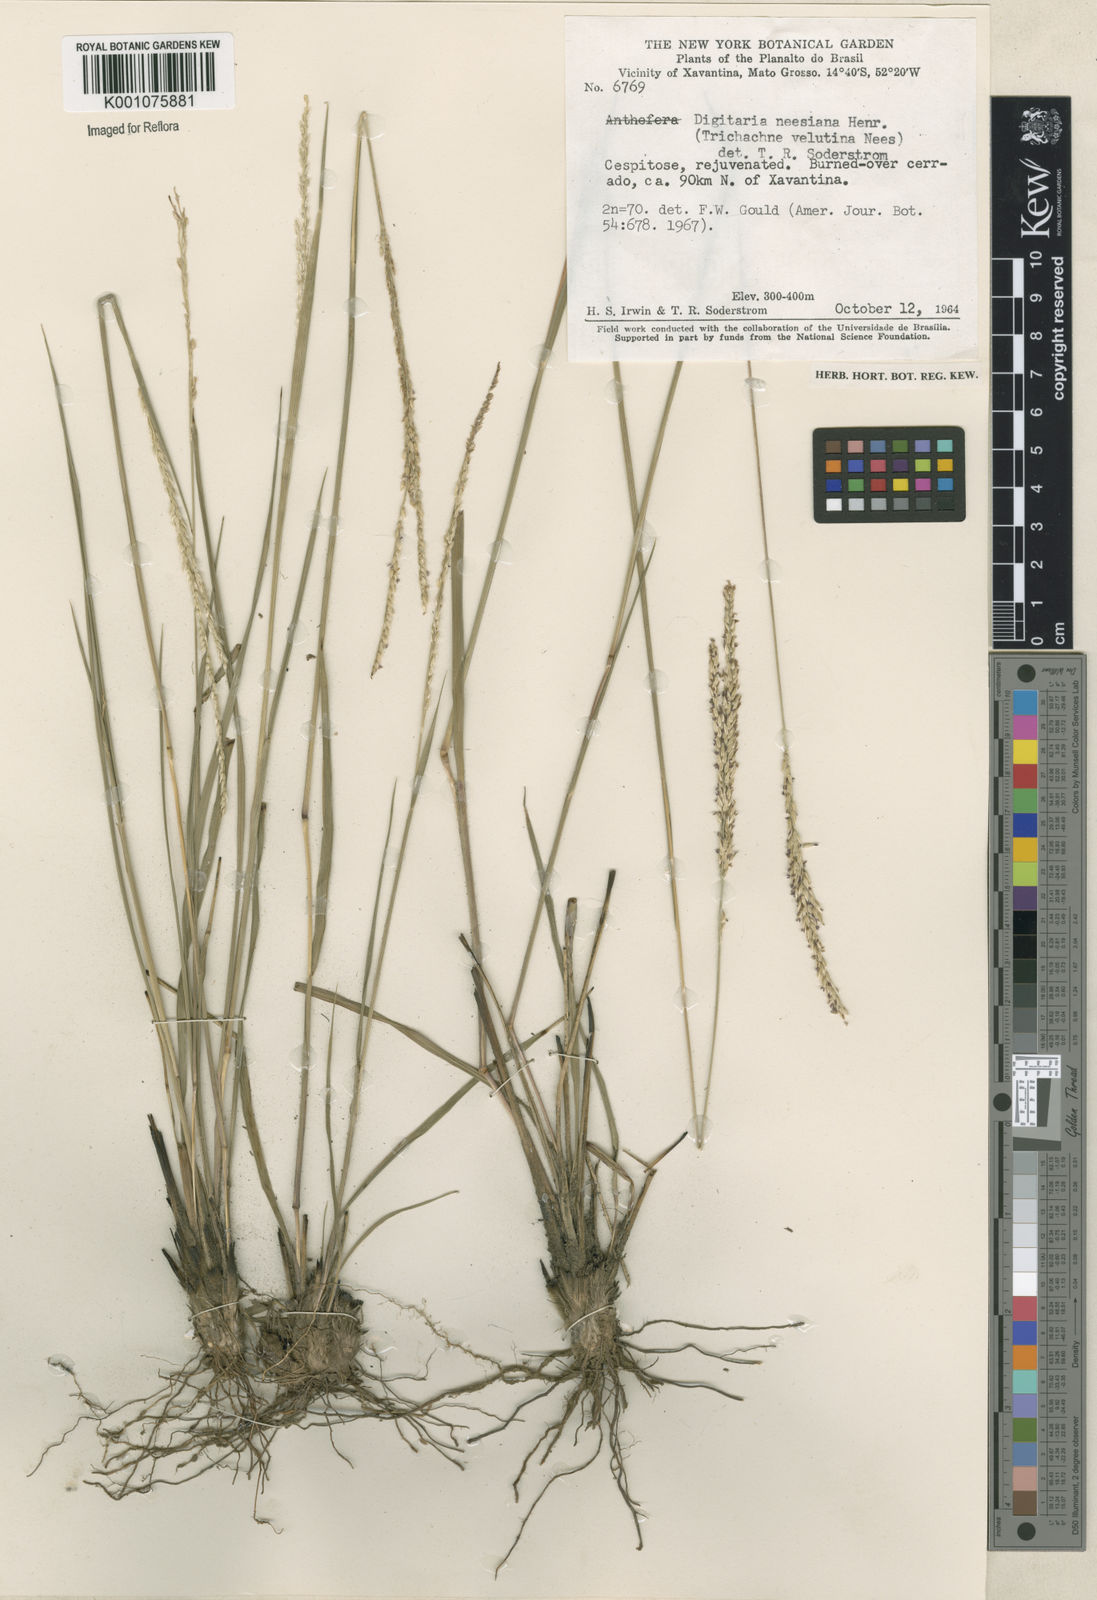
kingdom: Plantae
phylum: Tracheophyta
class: Liliopsida
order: Poales
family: Poaceae
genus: Digitaria
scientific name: Digitaria neesiana
